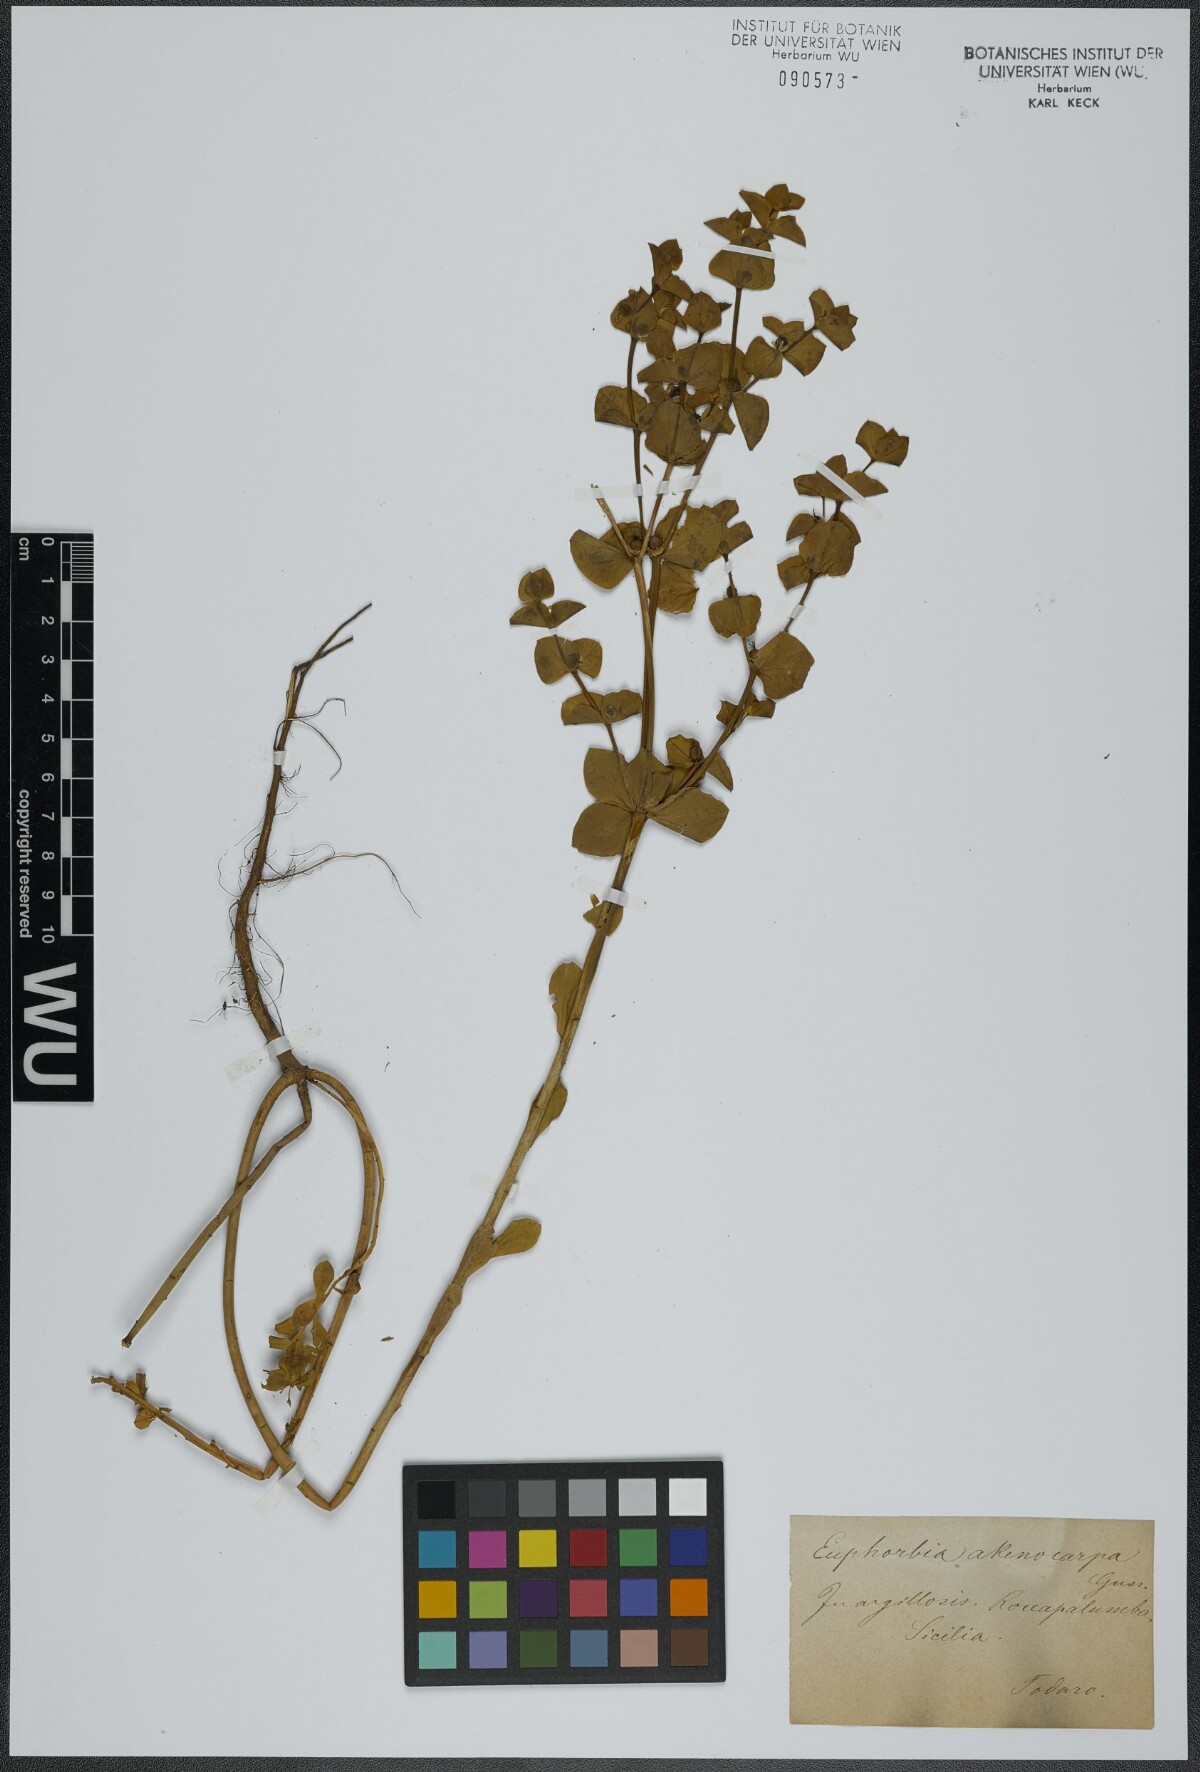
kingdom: Plantae
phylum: Tracheophyta
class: Magnoliopsida
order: Malpighiales
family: Euphorbiaceae
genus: Euphorbia
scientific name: Euphorbia valerianifolia
